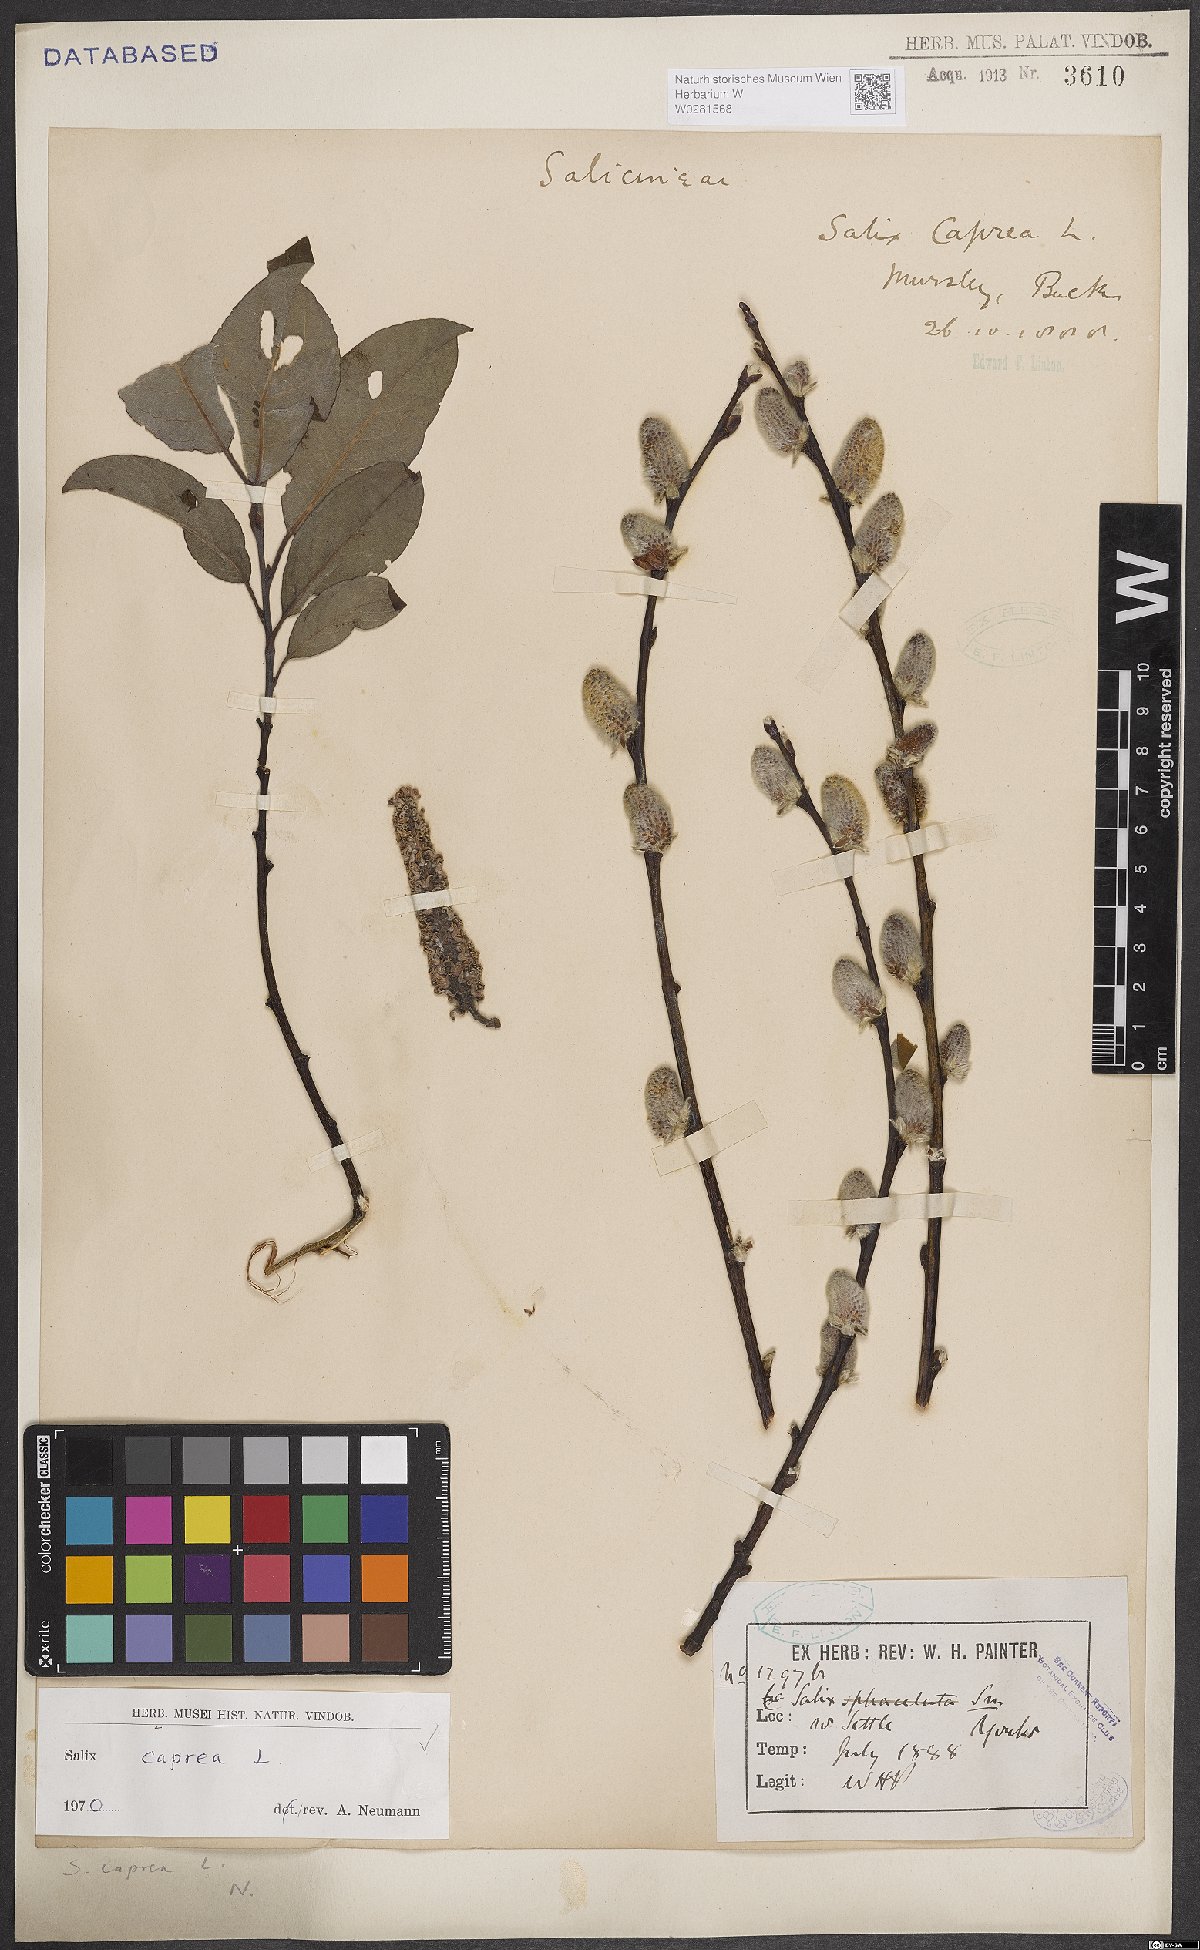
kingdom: Plantae
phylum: Tracheophyta
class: Magnoliopsida
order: Malpighiales
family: Salicaceae
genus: Salix
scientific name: Salix caprea
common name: Goat willow
